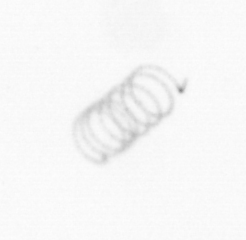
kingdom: Chromista
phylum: Ochrophyta
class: Bacillariophyceae
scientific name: Bacillariophyceae
